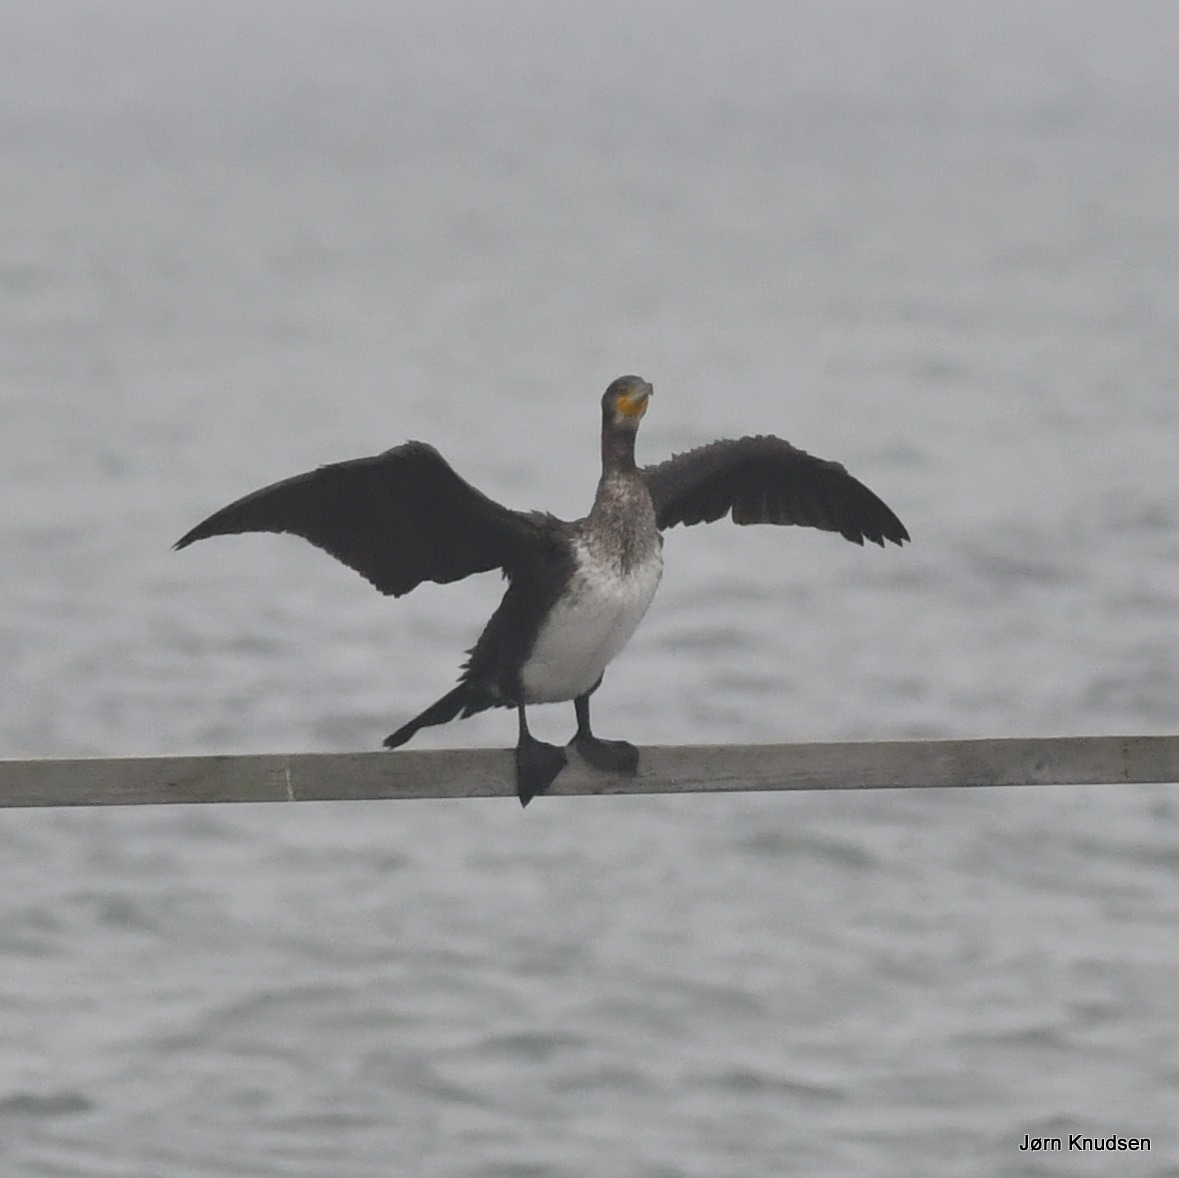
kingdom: Animalia
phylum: Chordata
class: Aves
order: Suliformes
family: Phalacrocoracidae
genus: Phalacrocorax
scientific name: Phalacrocorax carbo
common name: Mellemskarv
